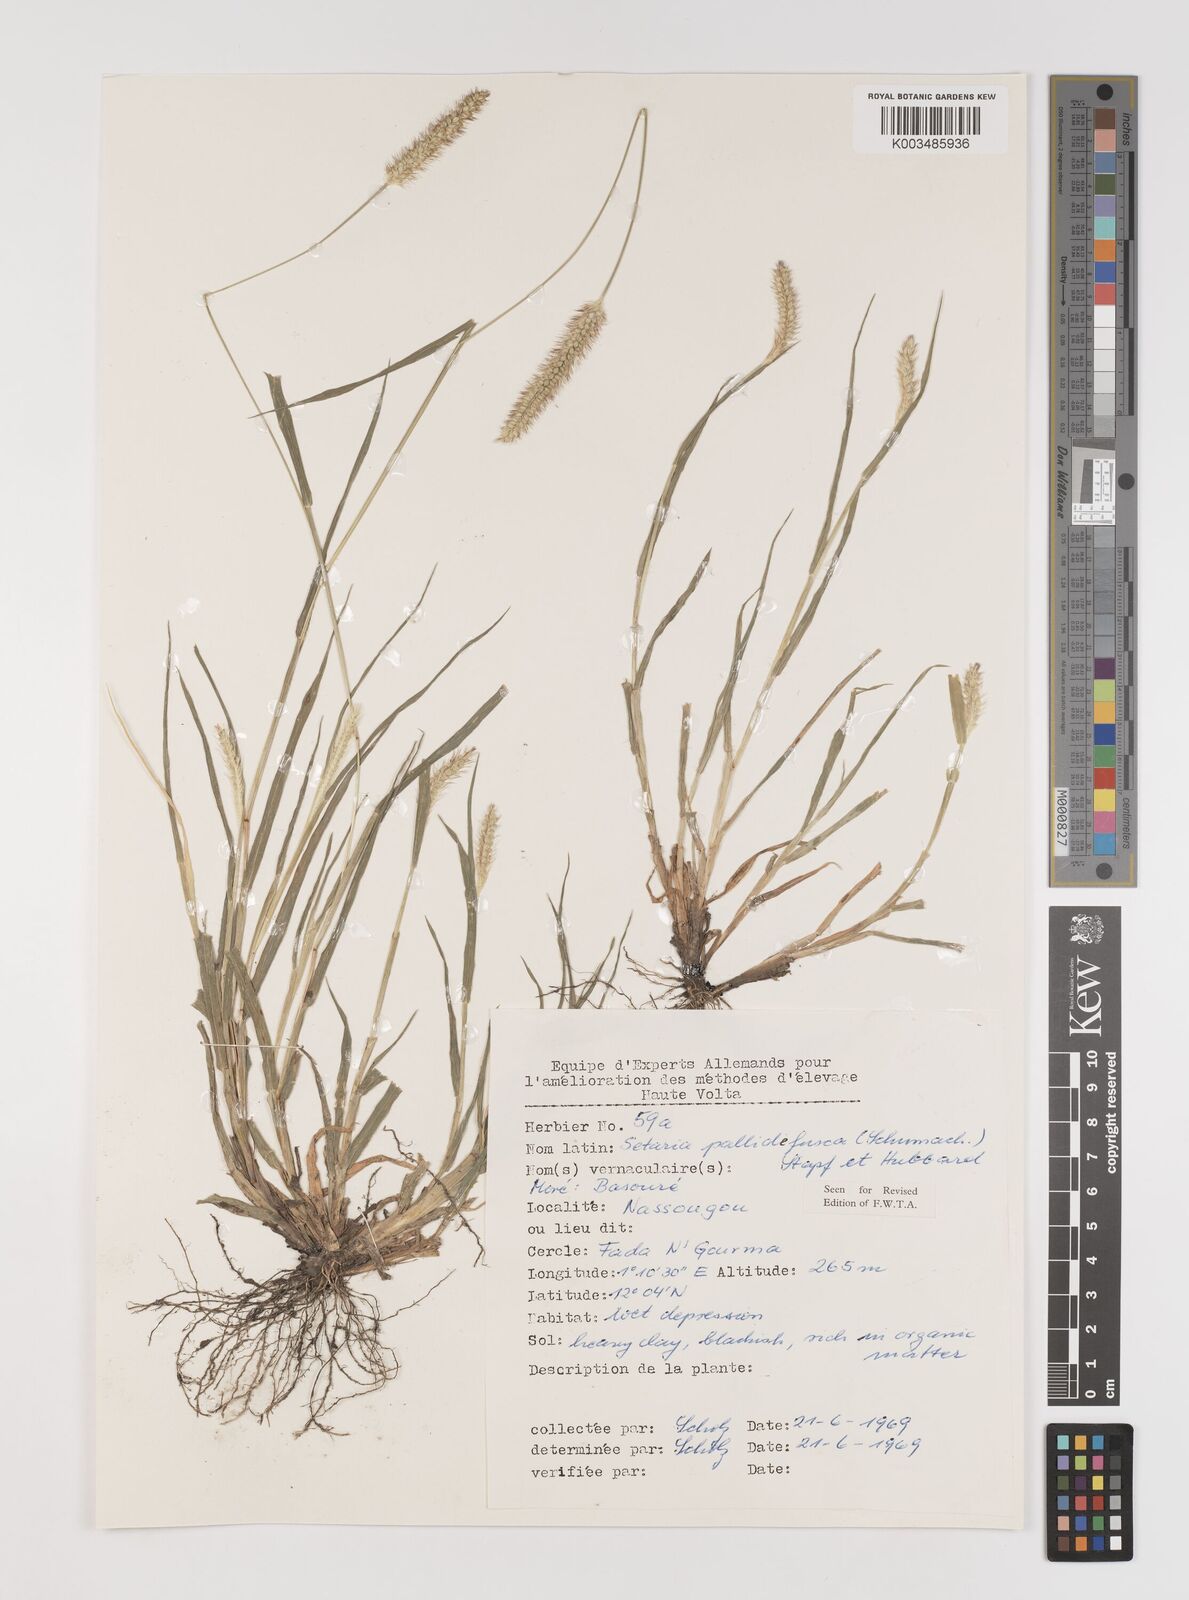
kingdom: Plantae
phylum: Tracheophyta
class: Liliopsida
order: Poales
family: Poaceae
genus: Setaria
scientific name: Setaria pumila
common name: Yellow bristle-grass
